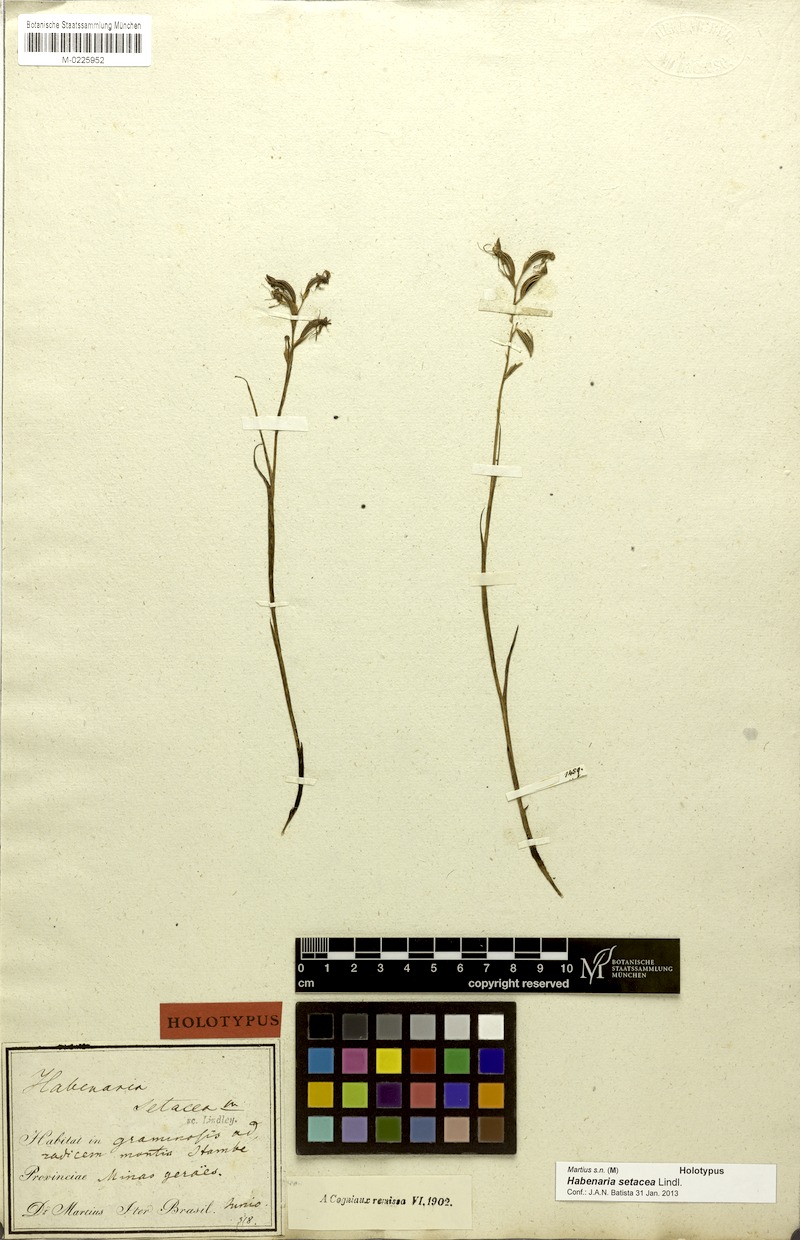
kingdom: Plantae
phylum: Tracheophyta
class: Liliopsida
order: Asparagales
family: Orchidaceae
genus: Habenaria
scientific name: Habenaria setacea
